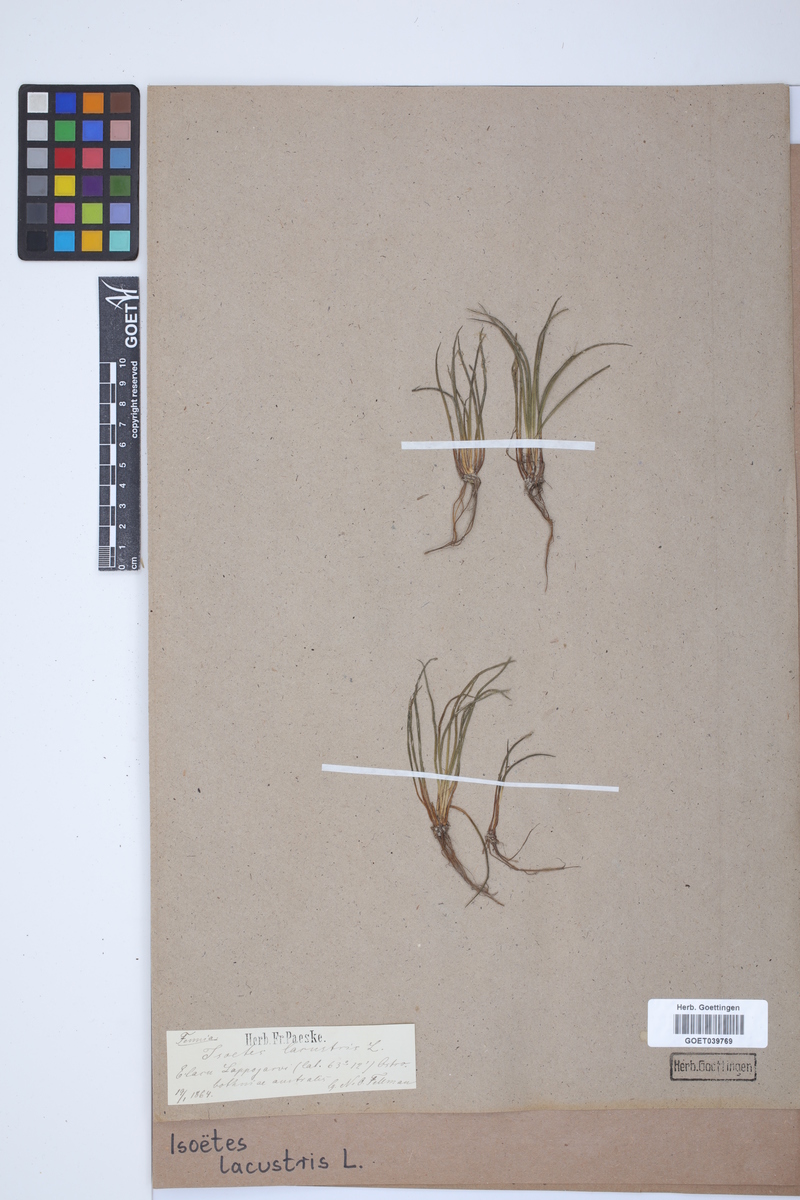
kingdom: Plantae
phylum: Tracheophyta
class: Lycopodiopsida
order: Isoetales
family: Isoetaceae
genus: Isoetes
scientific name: Isoetes lacustris
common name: Common quillwort
